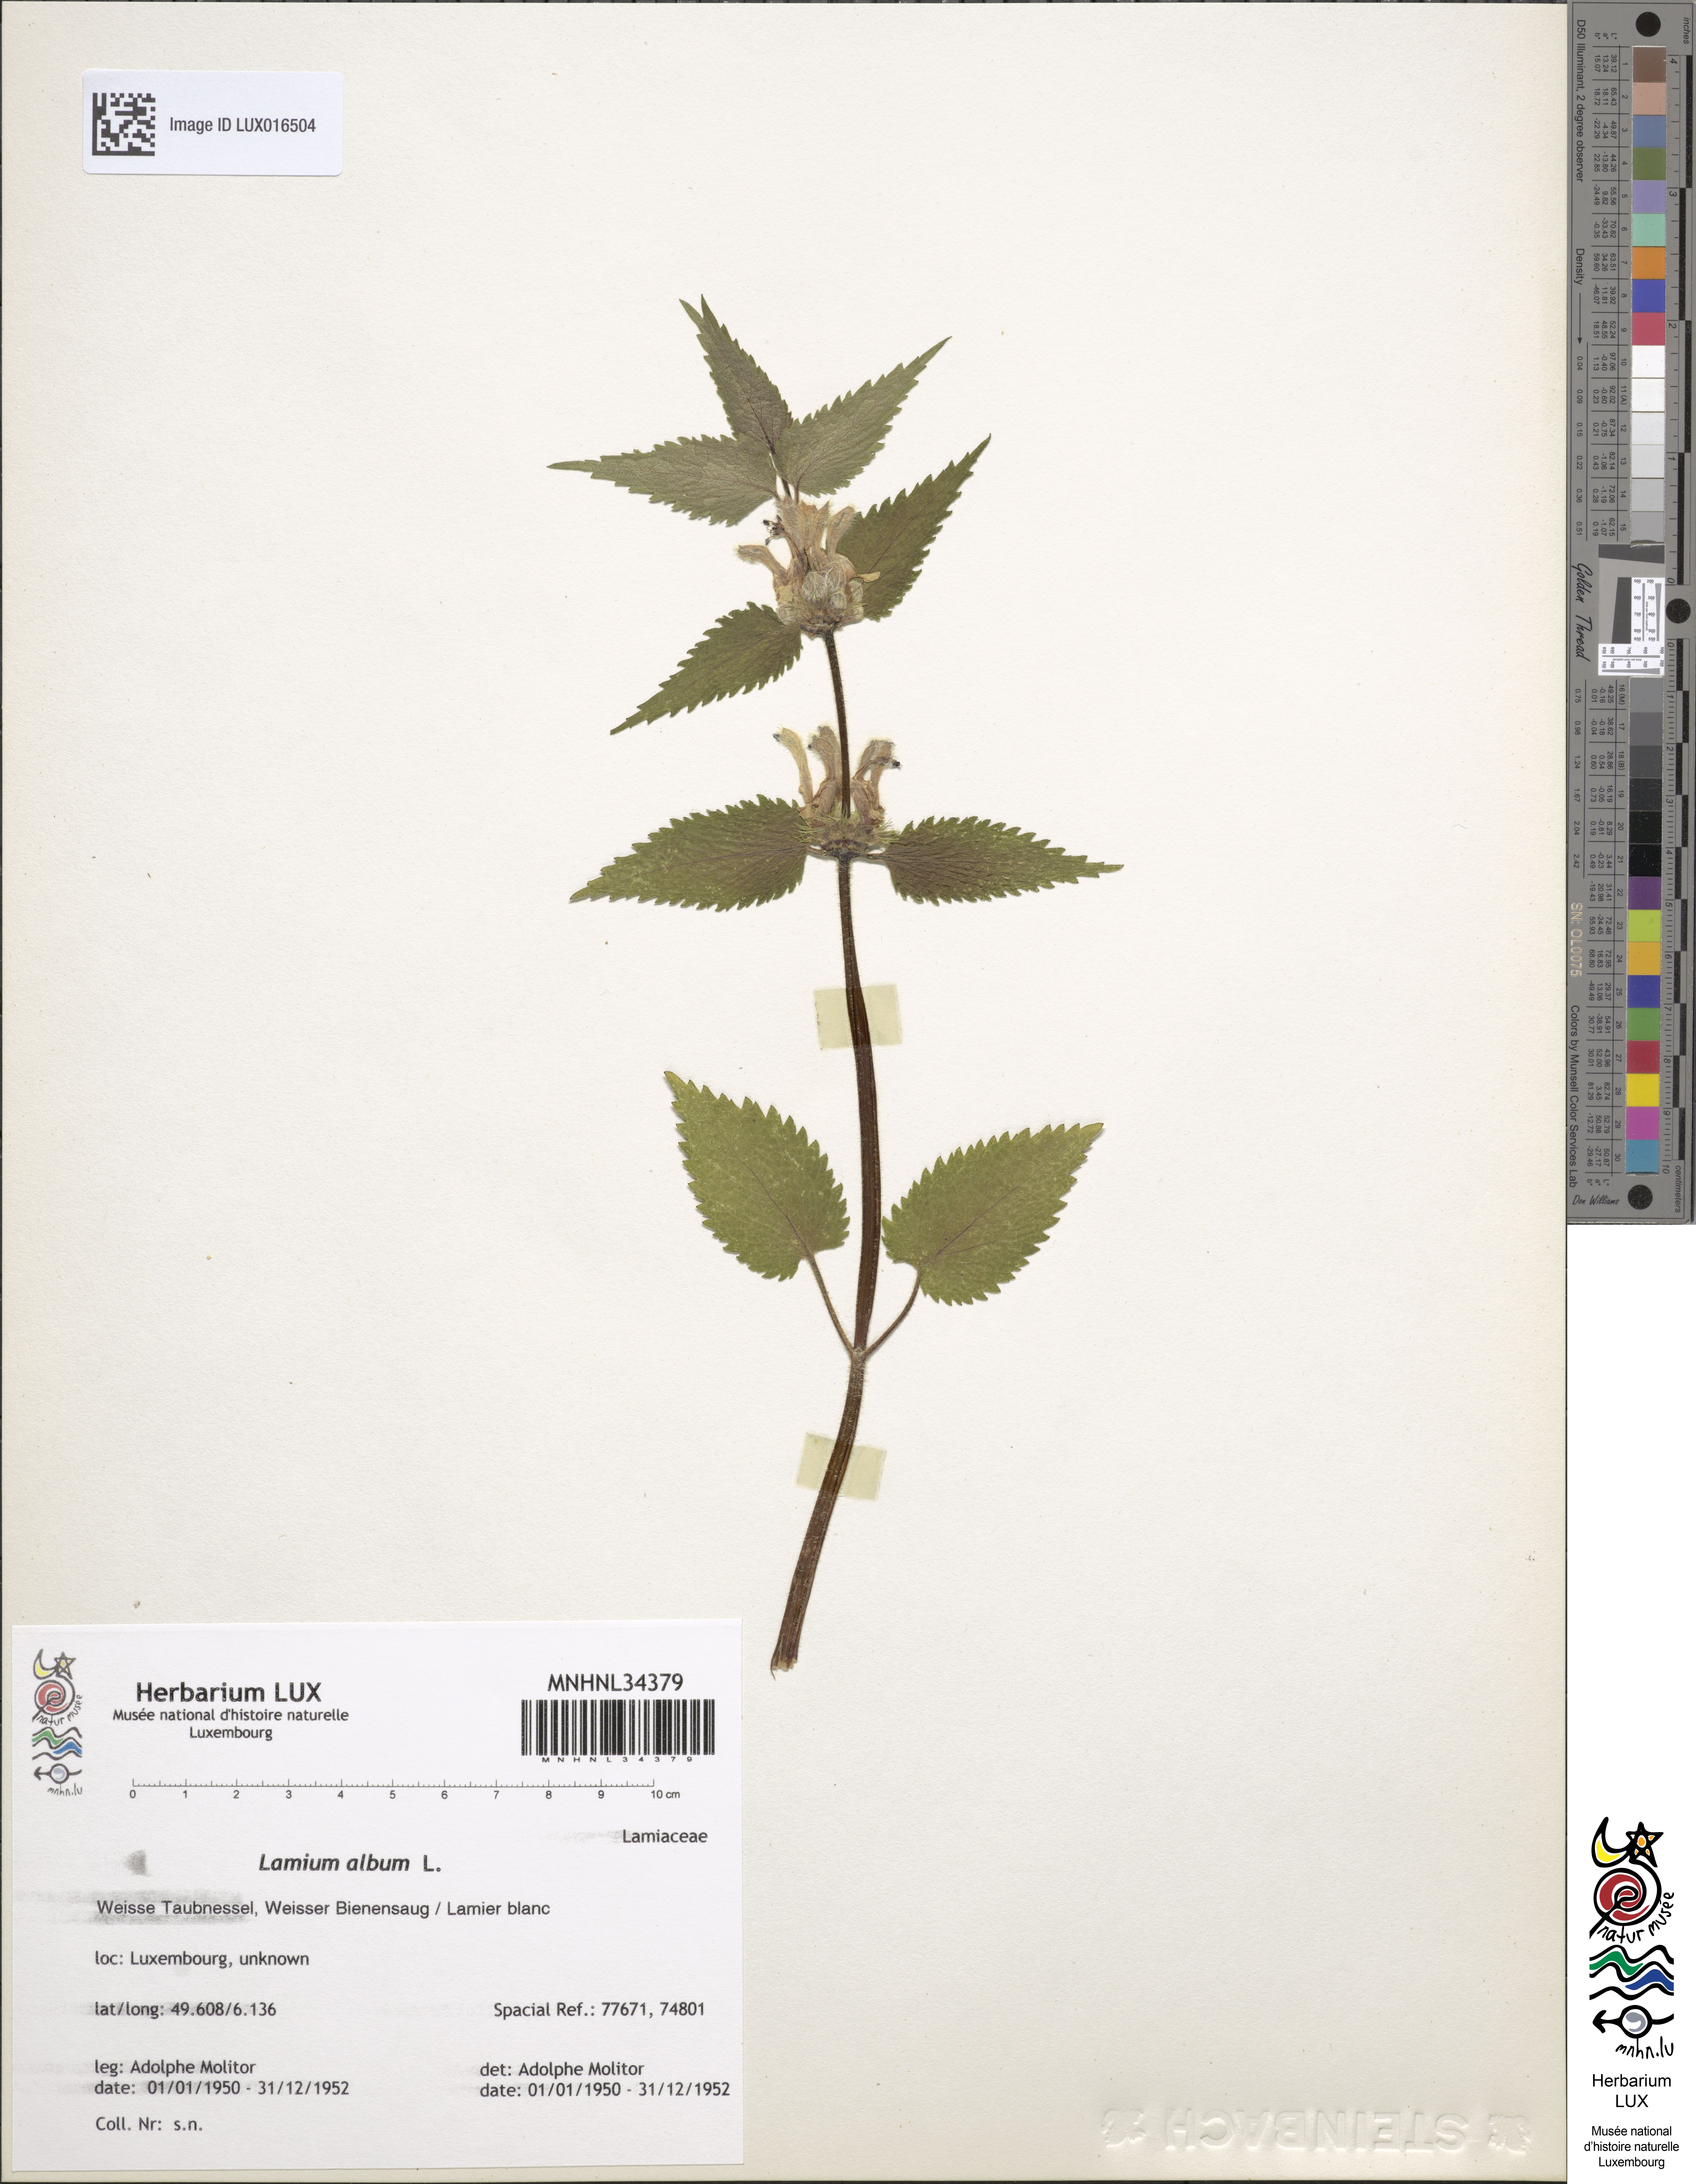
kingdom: Plantae
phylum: Tracheophyta
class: Magnoliopsida
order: Lamiales
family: Lamiaceae
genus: Lamium
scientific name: Lamium album
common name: White dead-nettle
